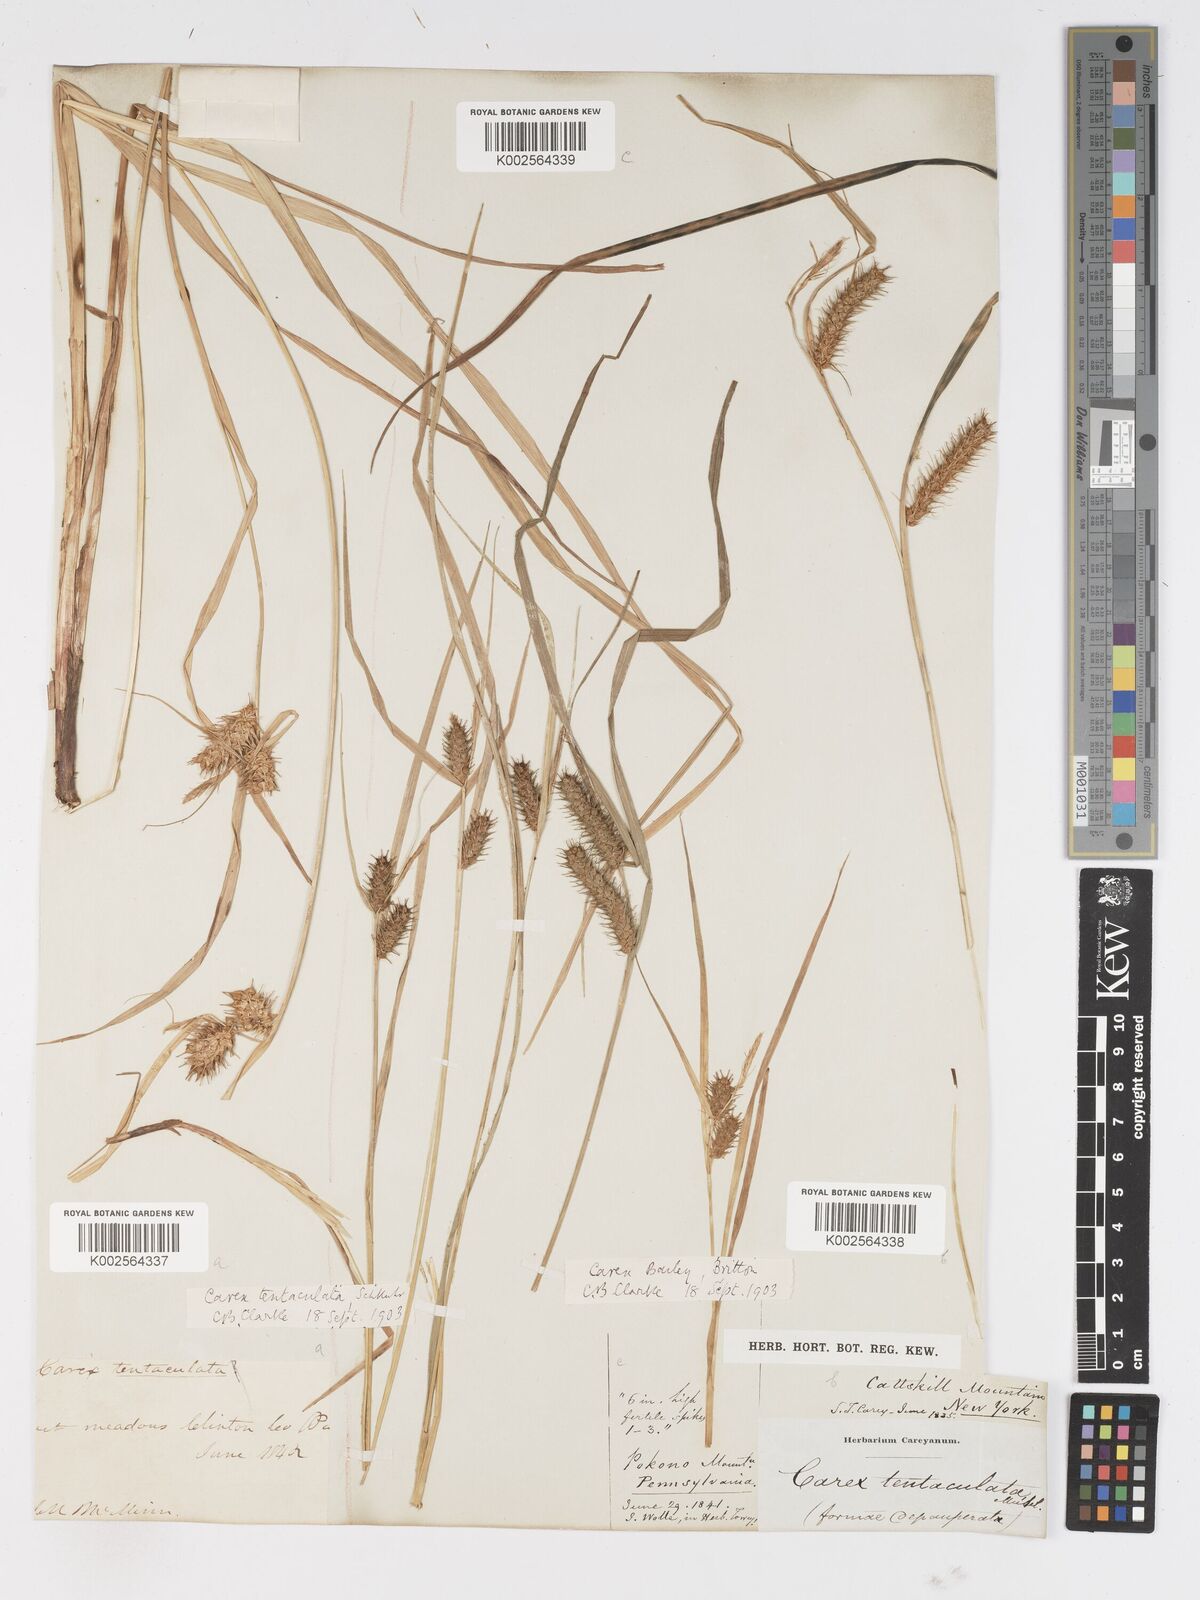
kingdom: Plantae
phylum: Tracheophyta
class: Liliopsida
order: Poales
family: Cyperaceae
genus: Carex
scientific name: Carex baileyi
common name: Bailey's sedge
